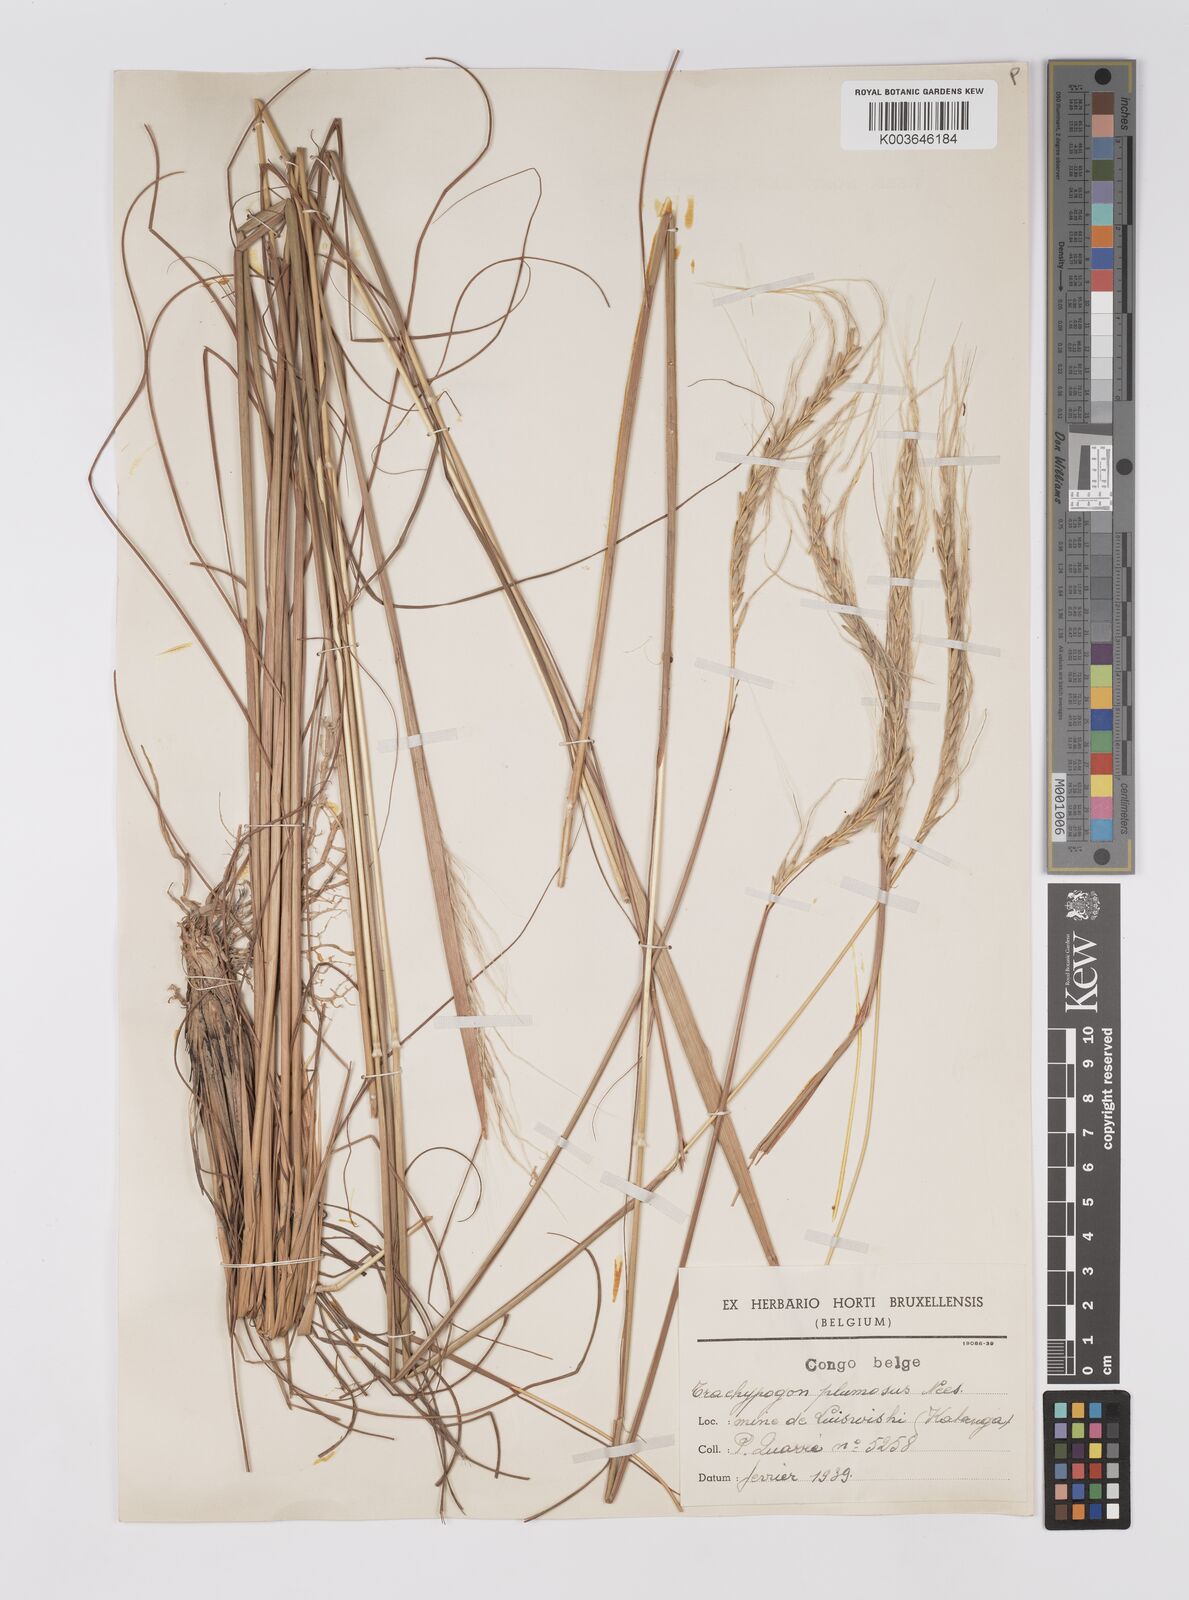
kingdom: Plantae
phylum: Tracheophyta
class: Liliopsida
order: Poales
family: Poaceae
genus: Trachypogon
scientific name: Trachypogon spicatus
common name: Crinkle-awn
